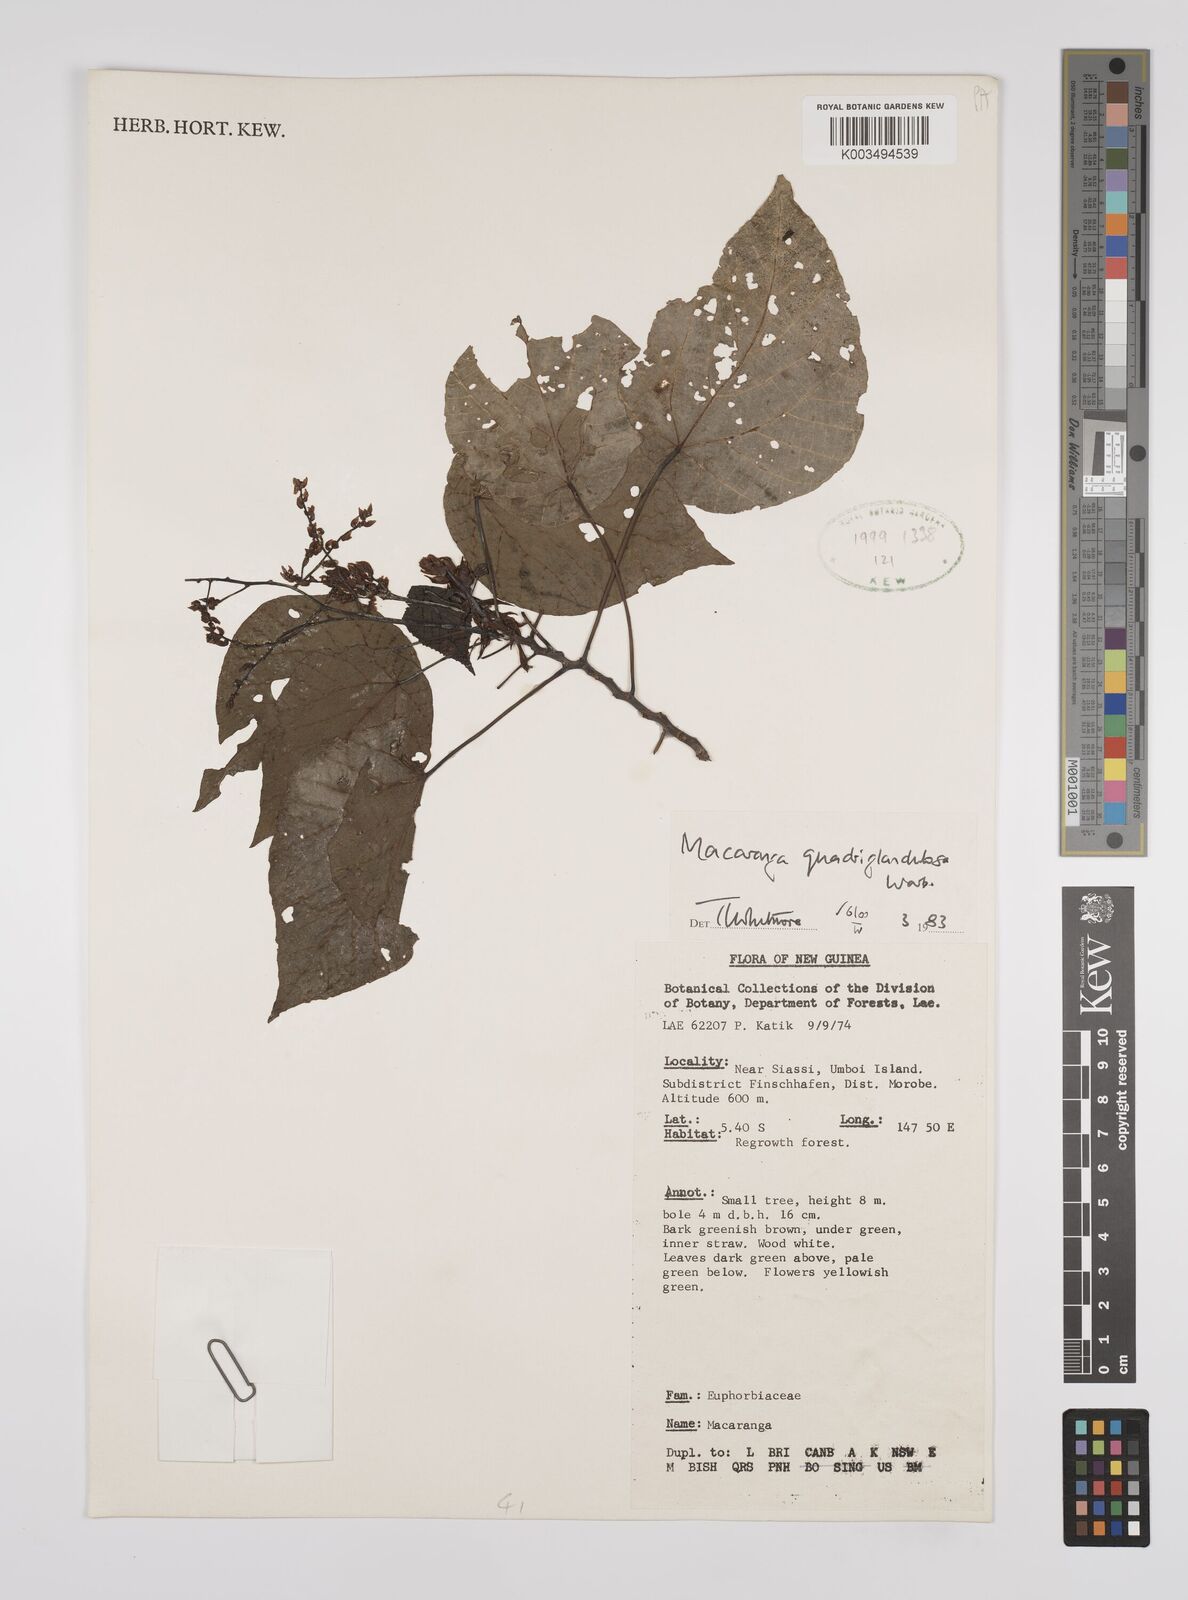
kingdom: Plantae
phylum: Tracheophyta
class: Magnoliopsida
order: Malpighiales
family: Euphorbiaceae
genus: Macaranga
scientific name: Macaranga quadriglandulosa
